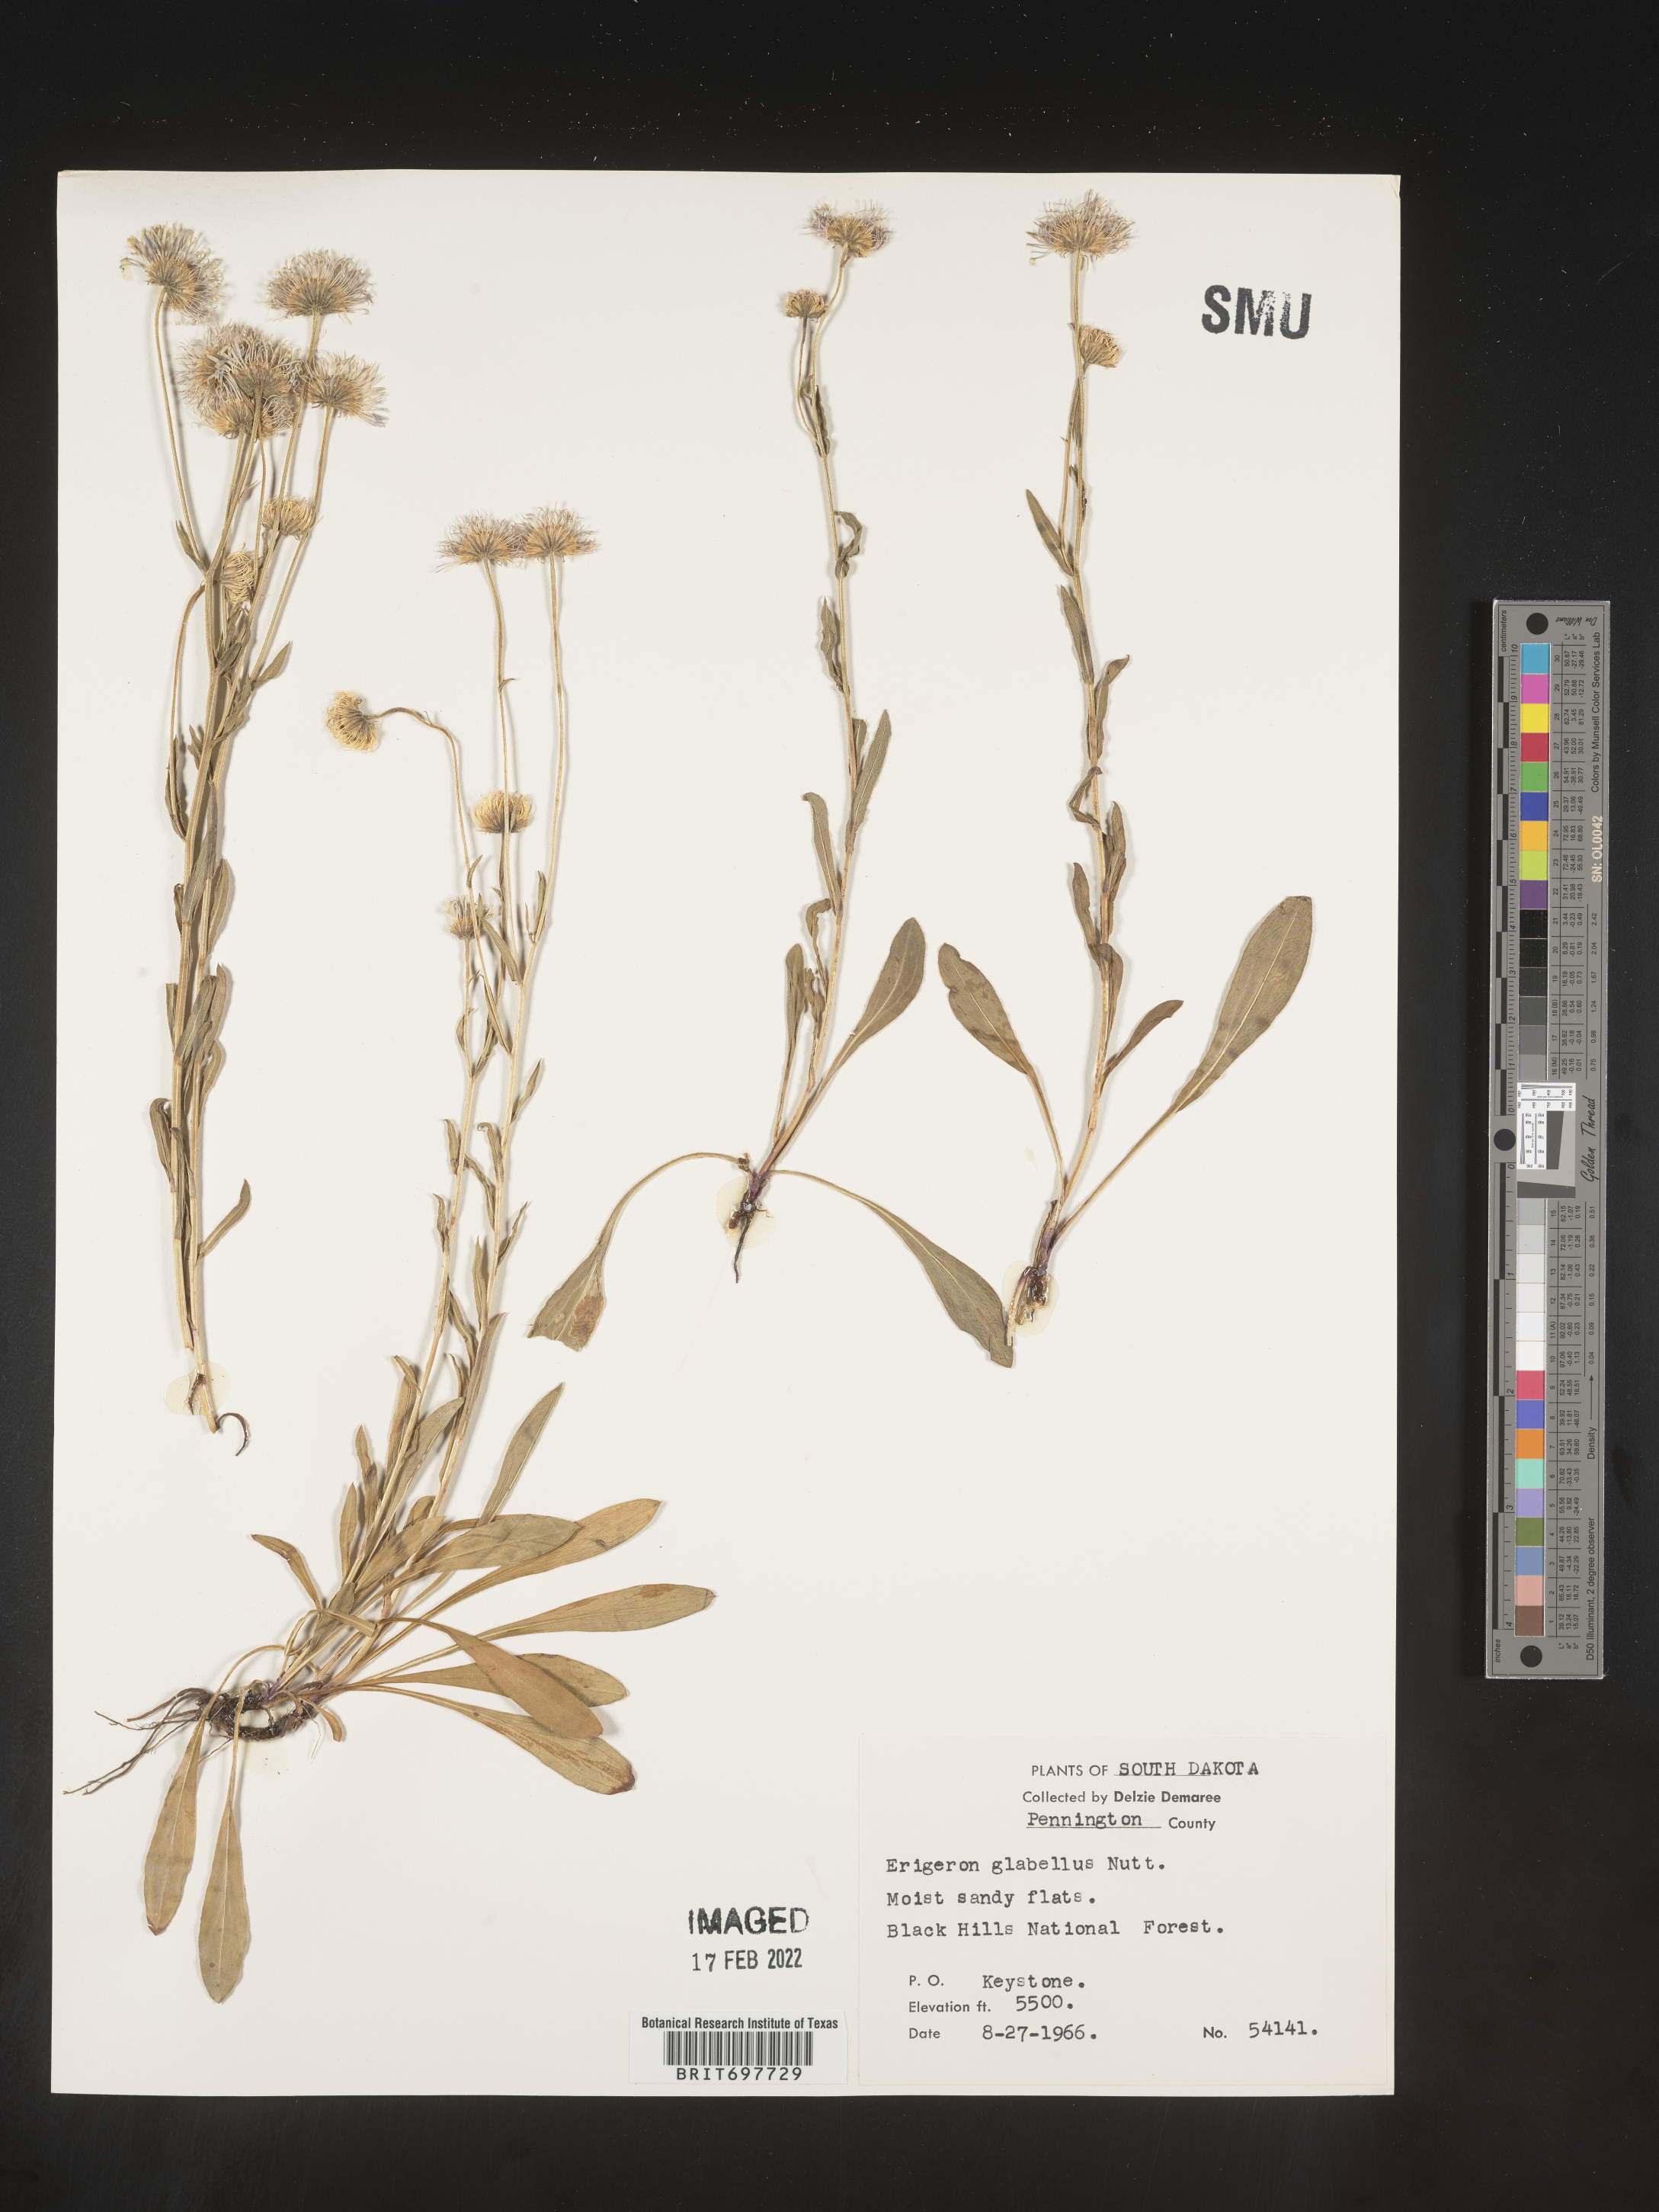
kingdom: Plantae
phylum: Tracheophyta
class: Magnoliopsida
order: Asterales
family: Asteraceae
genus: Erigeron
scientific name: Erigeron glabellus
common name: Smooth fleabane
